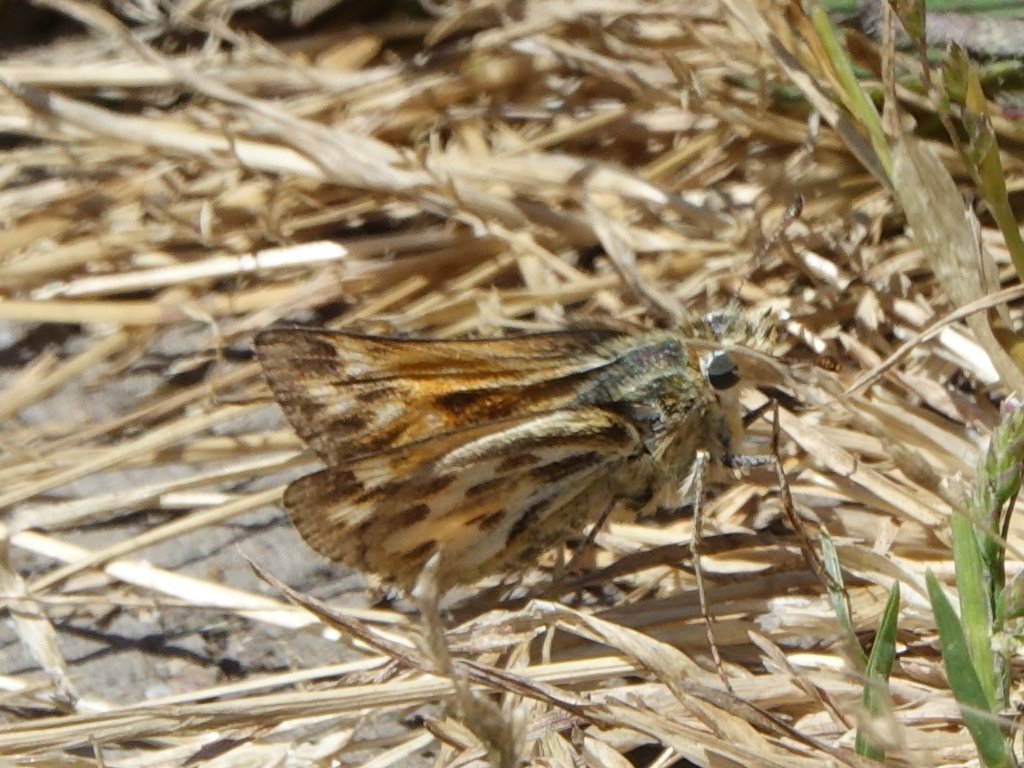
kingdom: Animalia
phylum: Arthropoda
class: Insecta
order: Lepidoptera
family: Hesperiidae
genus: Polites
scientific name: Polites sabuleti
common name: Sandhill Skipper
